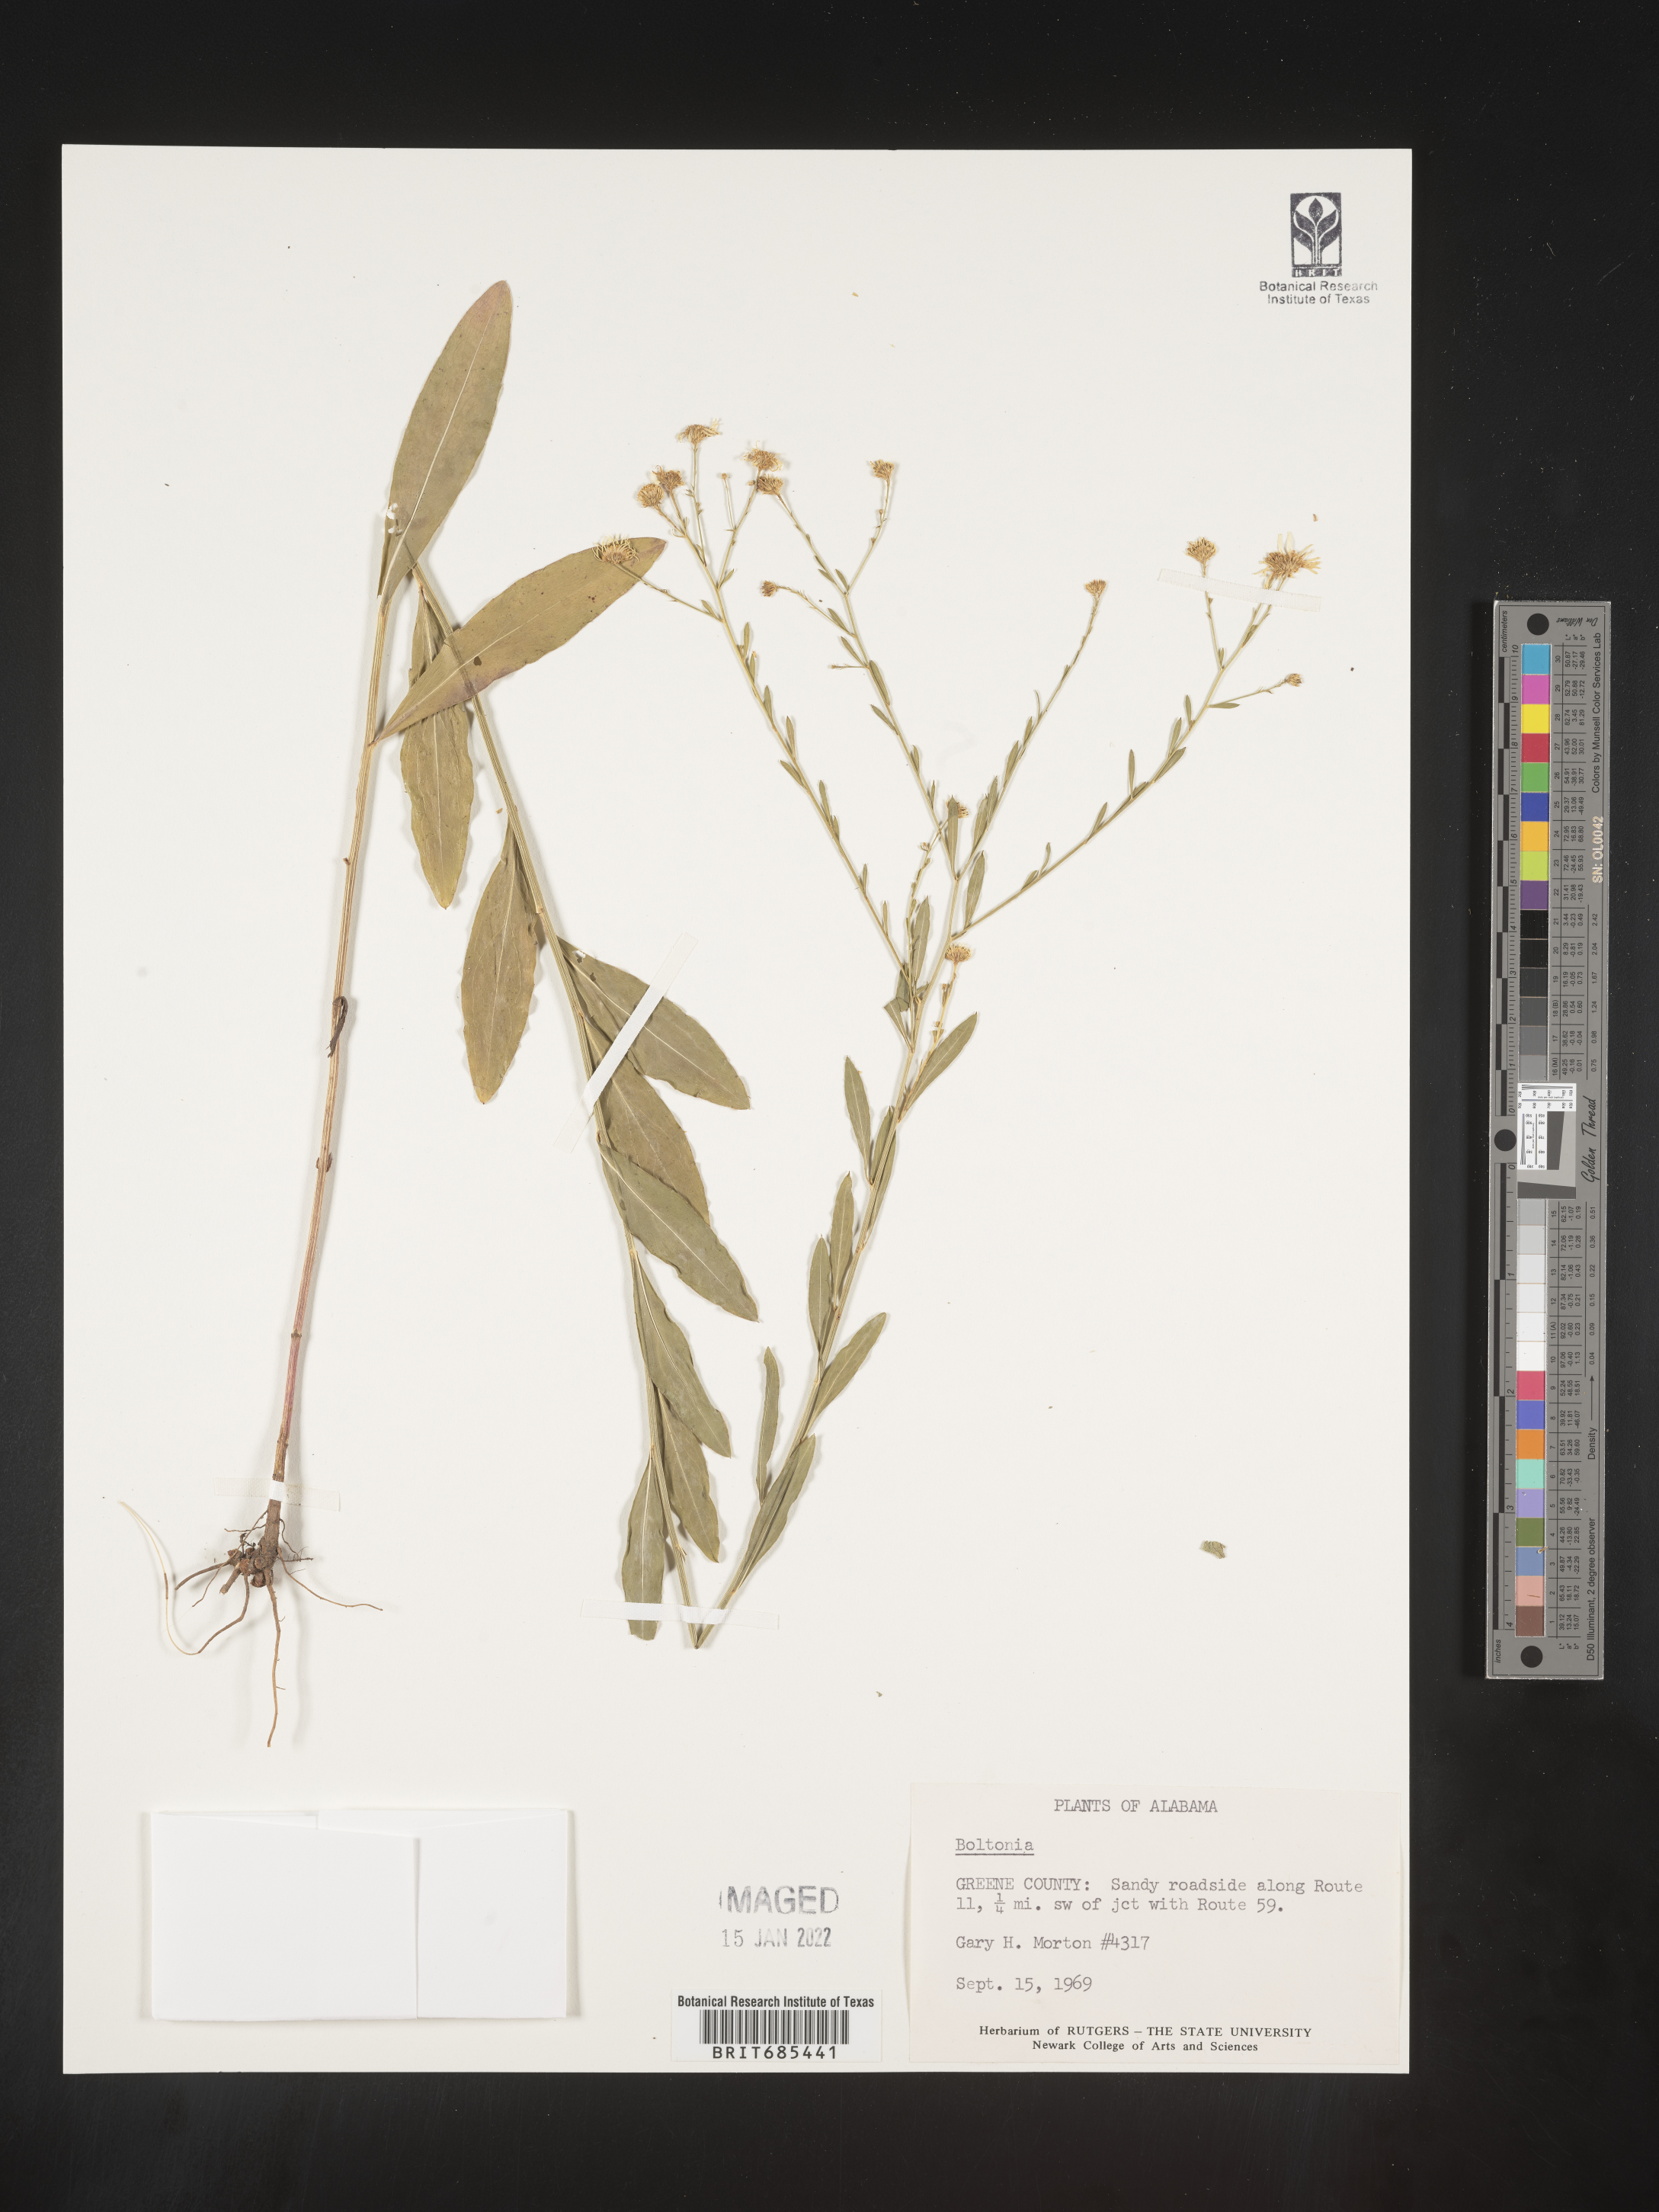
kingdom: Plantae
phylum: Tracheophyta
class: Magnoliopsida
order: Asterales
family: Asteraceae
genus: Boltonia
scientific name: Boltonia diffusa
